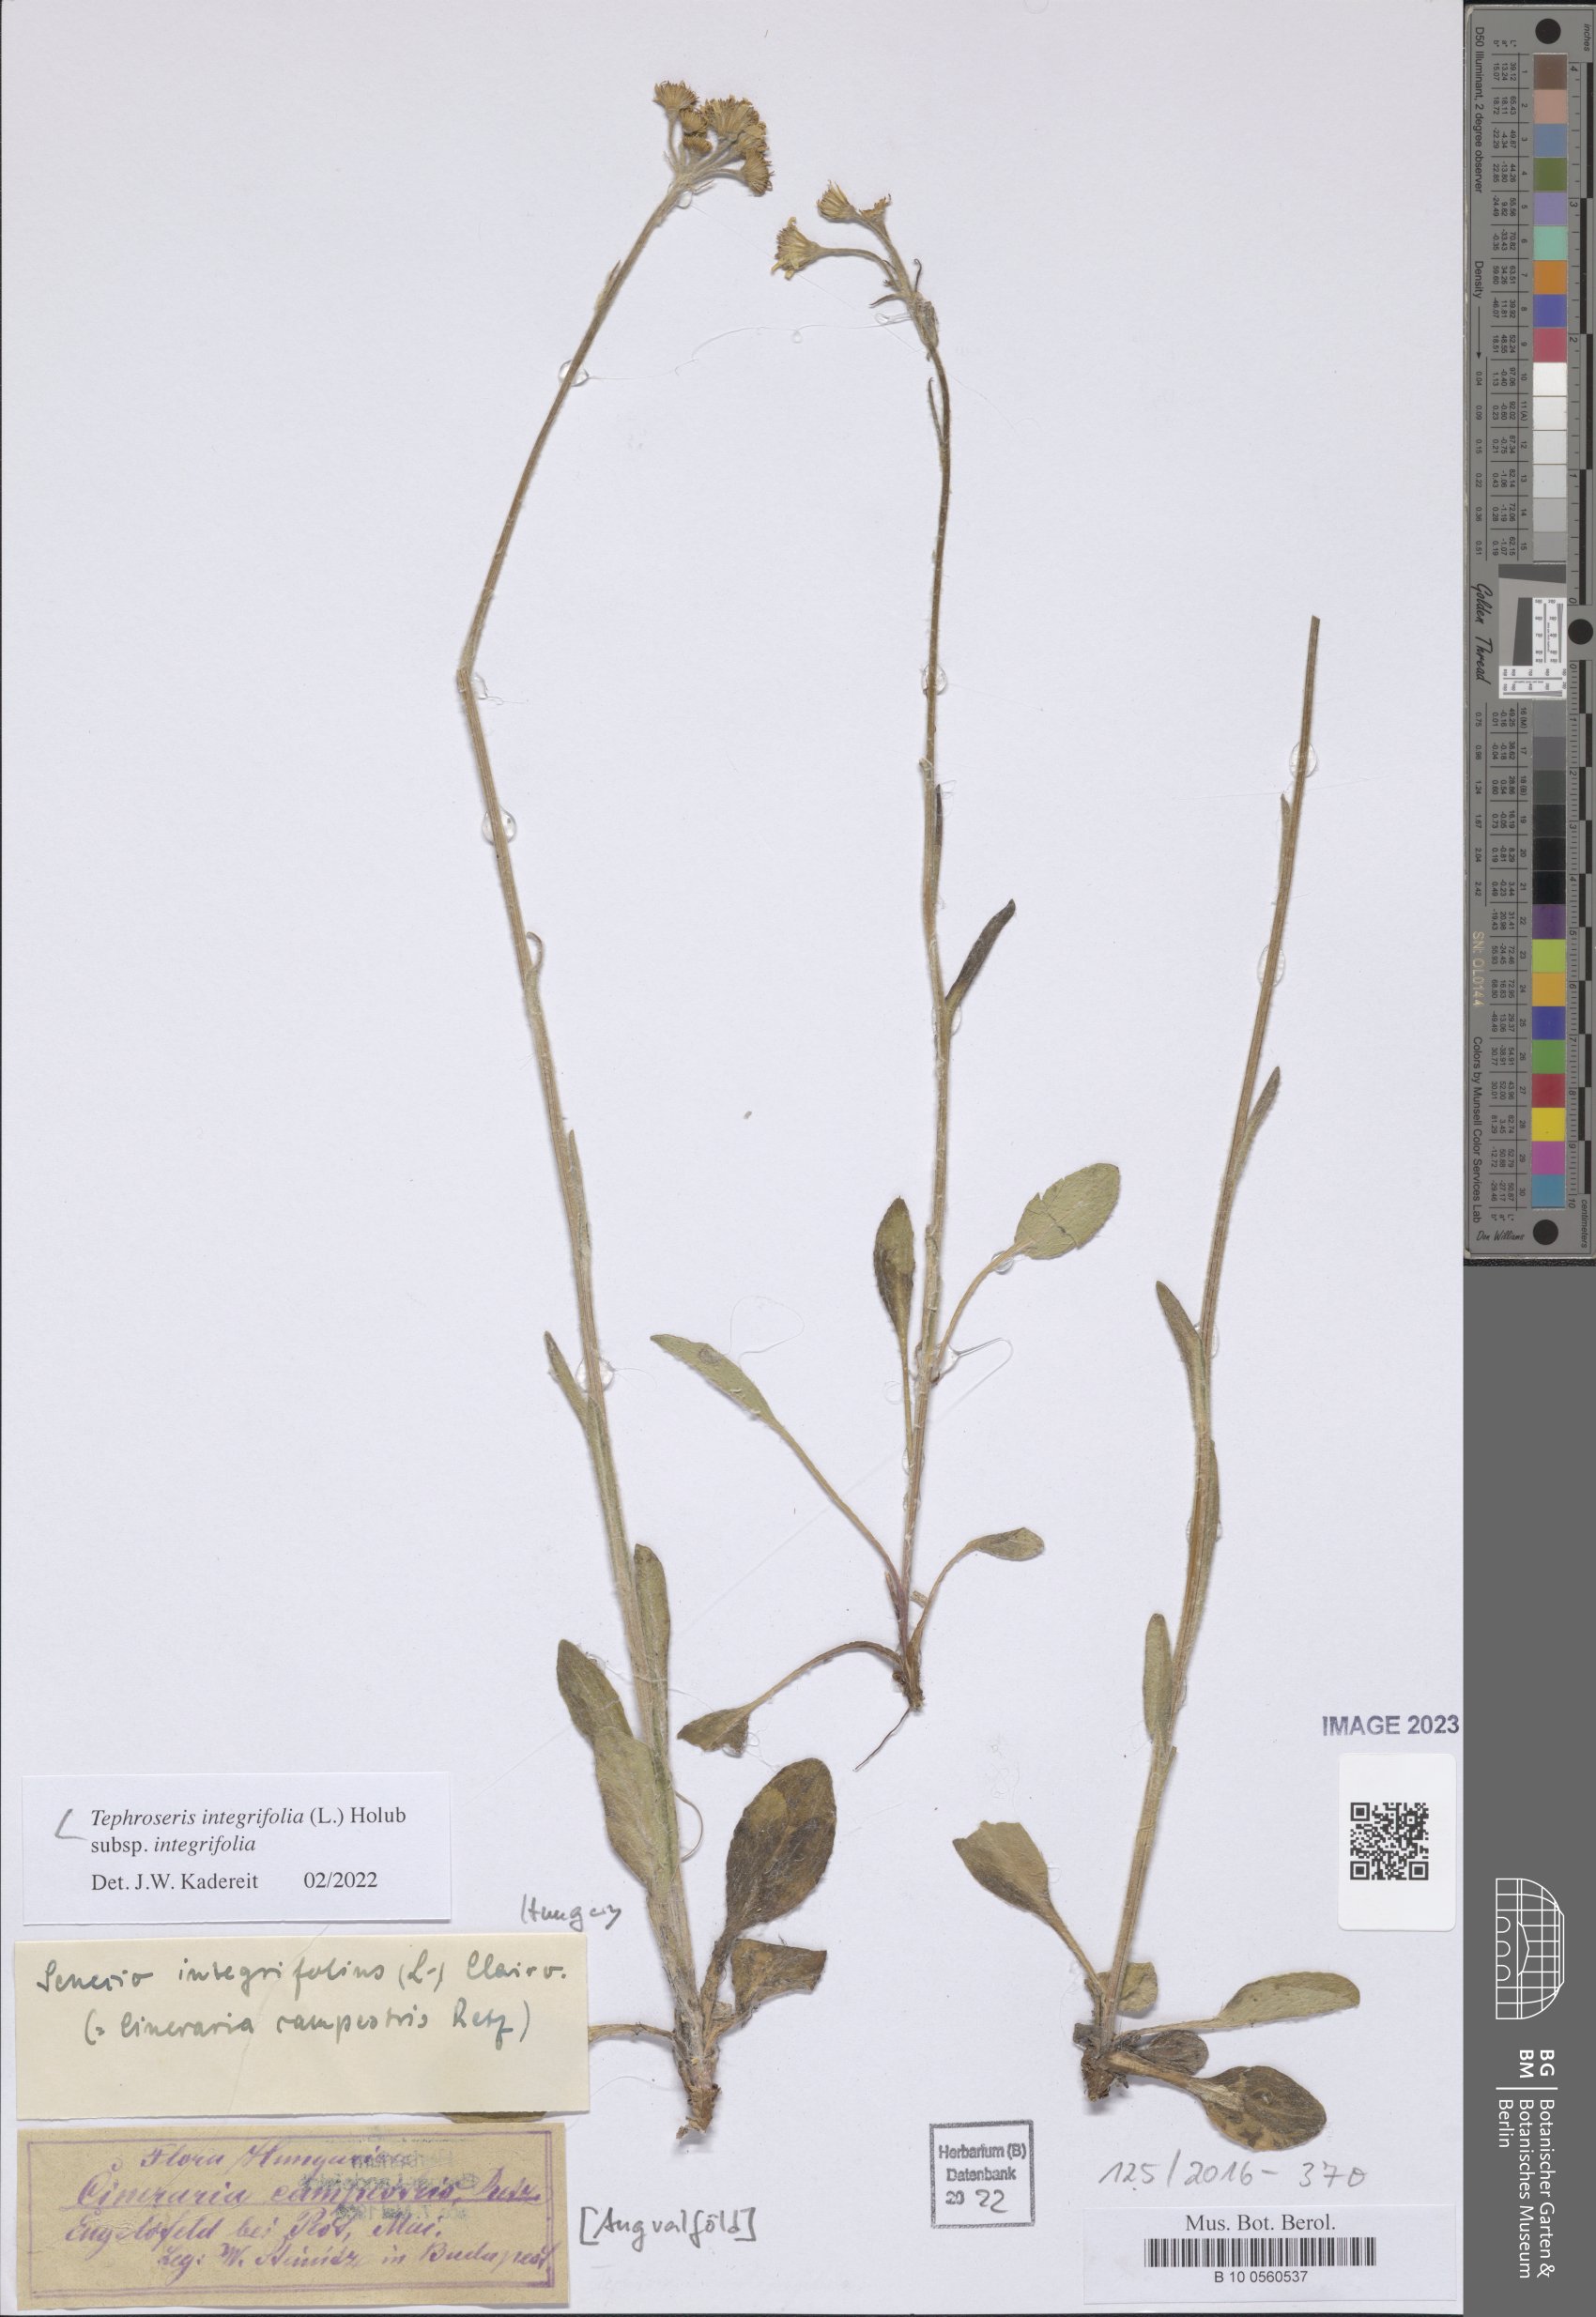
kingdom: Plantae
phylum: Tracheophyta
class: Magnoliopsida
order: Asterales
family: Asteraceae
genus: Tephroseris
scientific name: Tephroseris integrifolia
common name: Field fleawort
